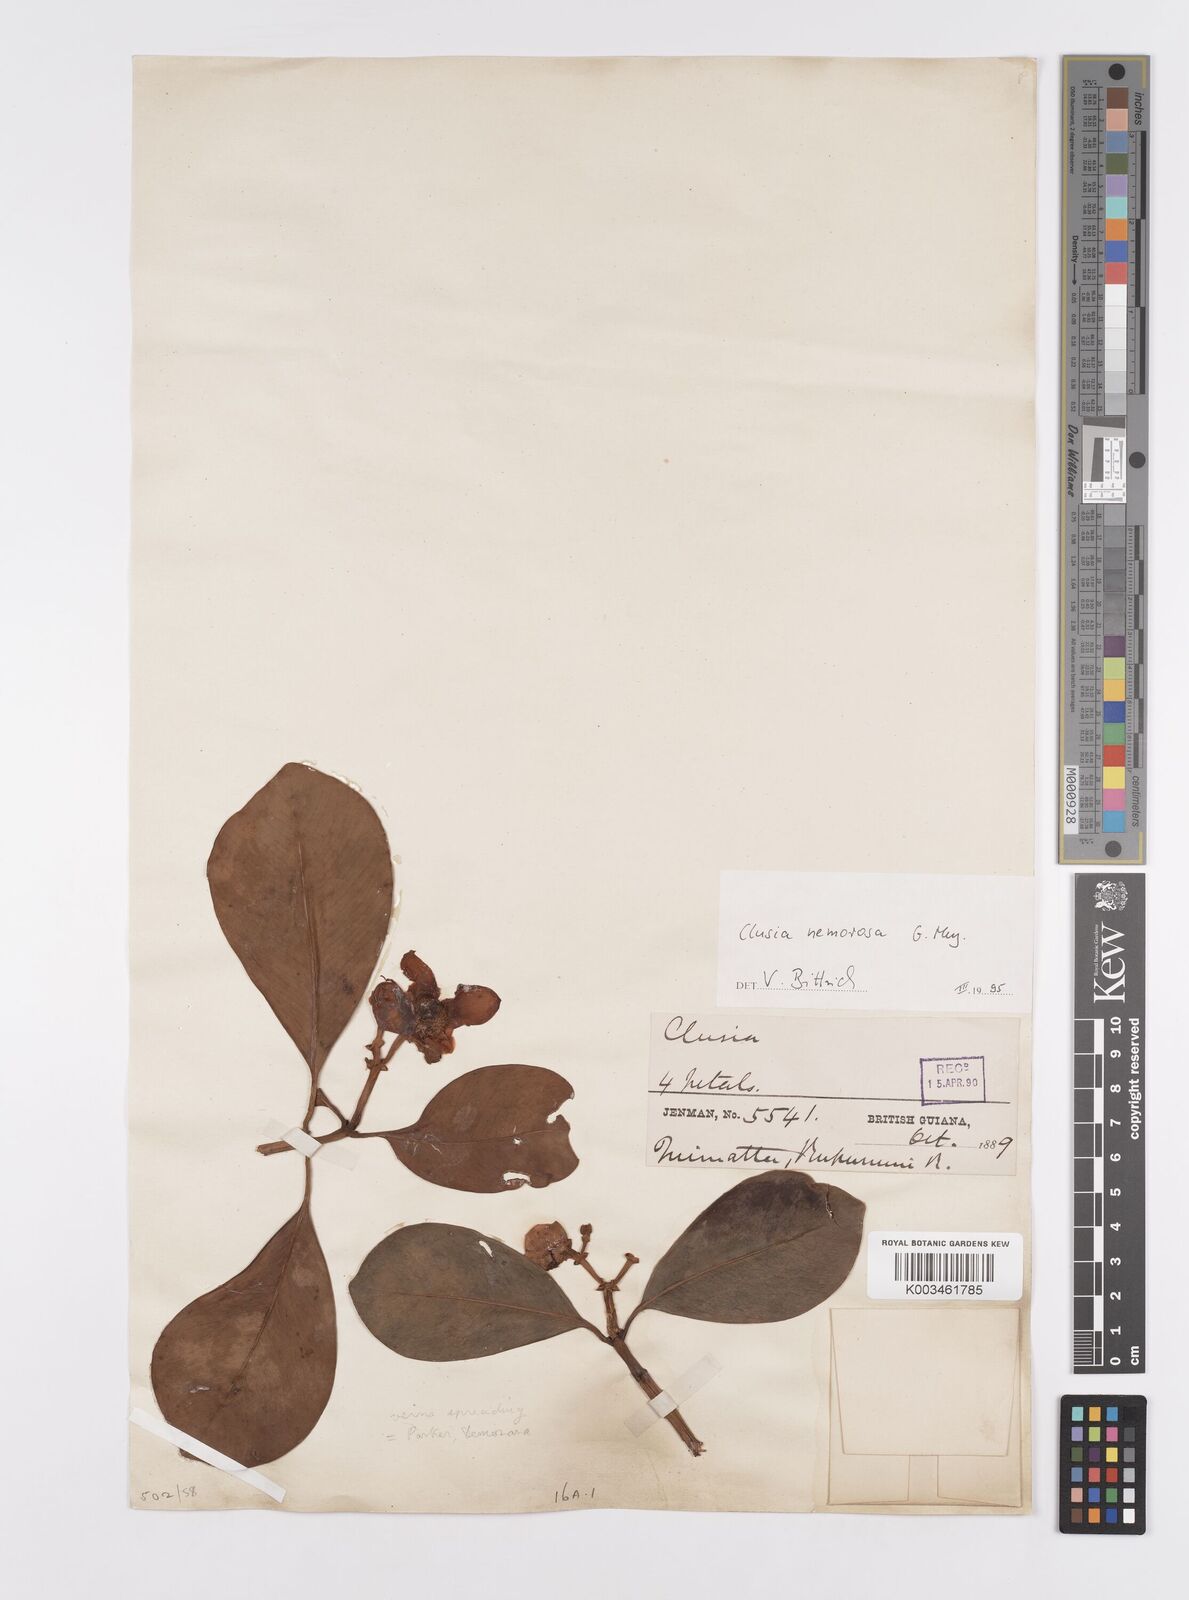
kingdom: Plantae
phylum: Tracheophyta
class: Magnoliopsida
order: Malpighiales
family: Clusiaceae
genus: Clusia
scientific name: Clusia nemorosa
